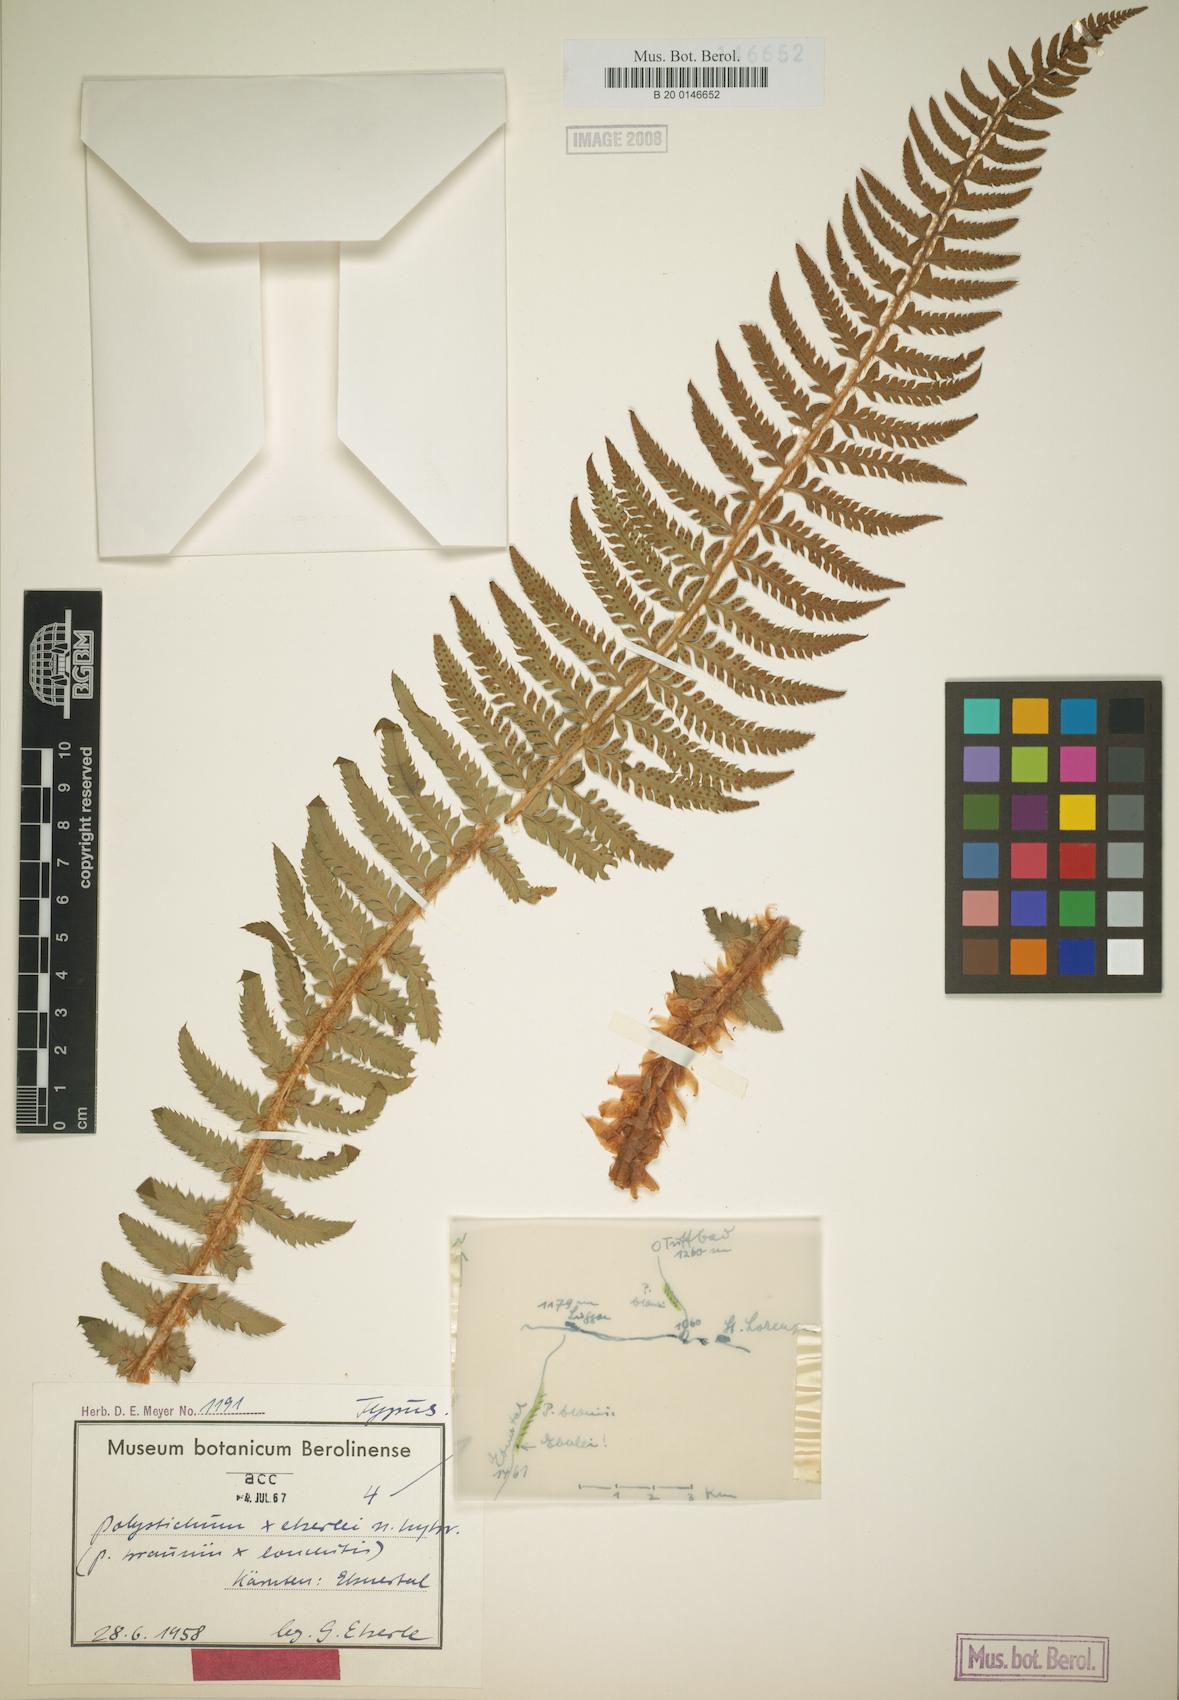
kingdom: Plantae
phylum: Tracheophyta
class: Polypodiopsida
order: Polypodiales
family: Dryopteridaceae
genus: Polystichum
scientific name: Polystichum illyricum
